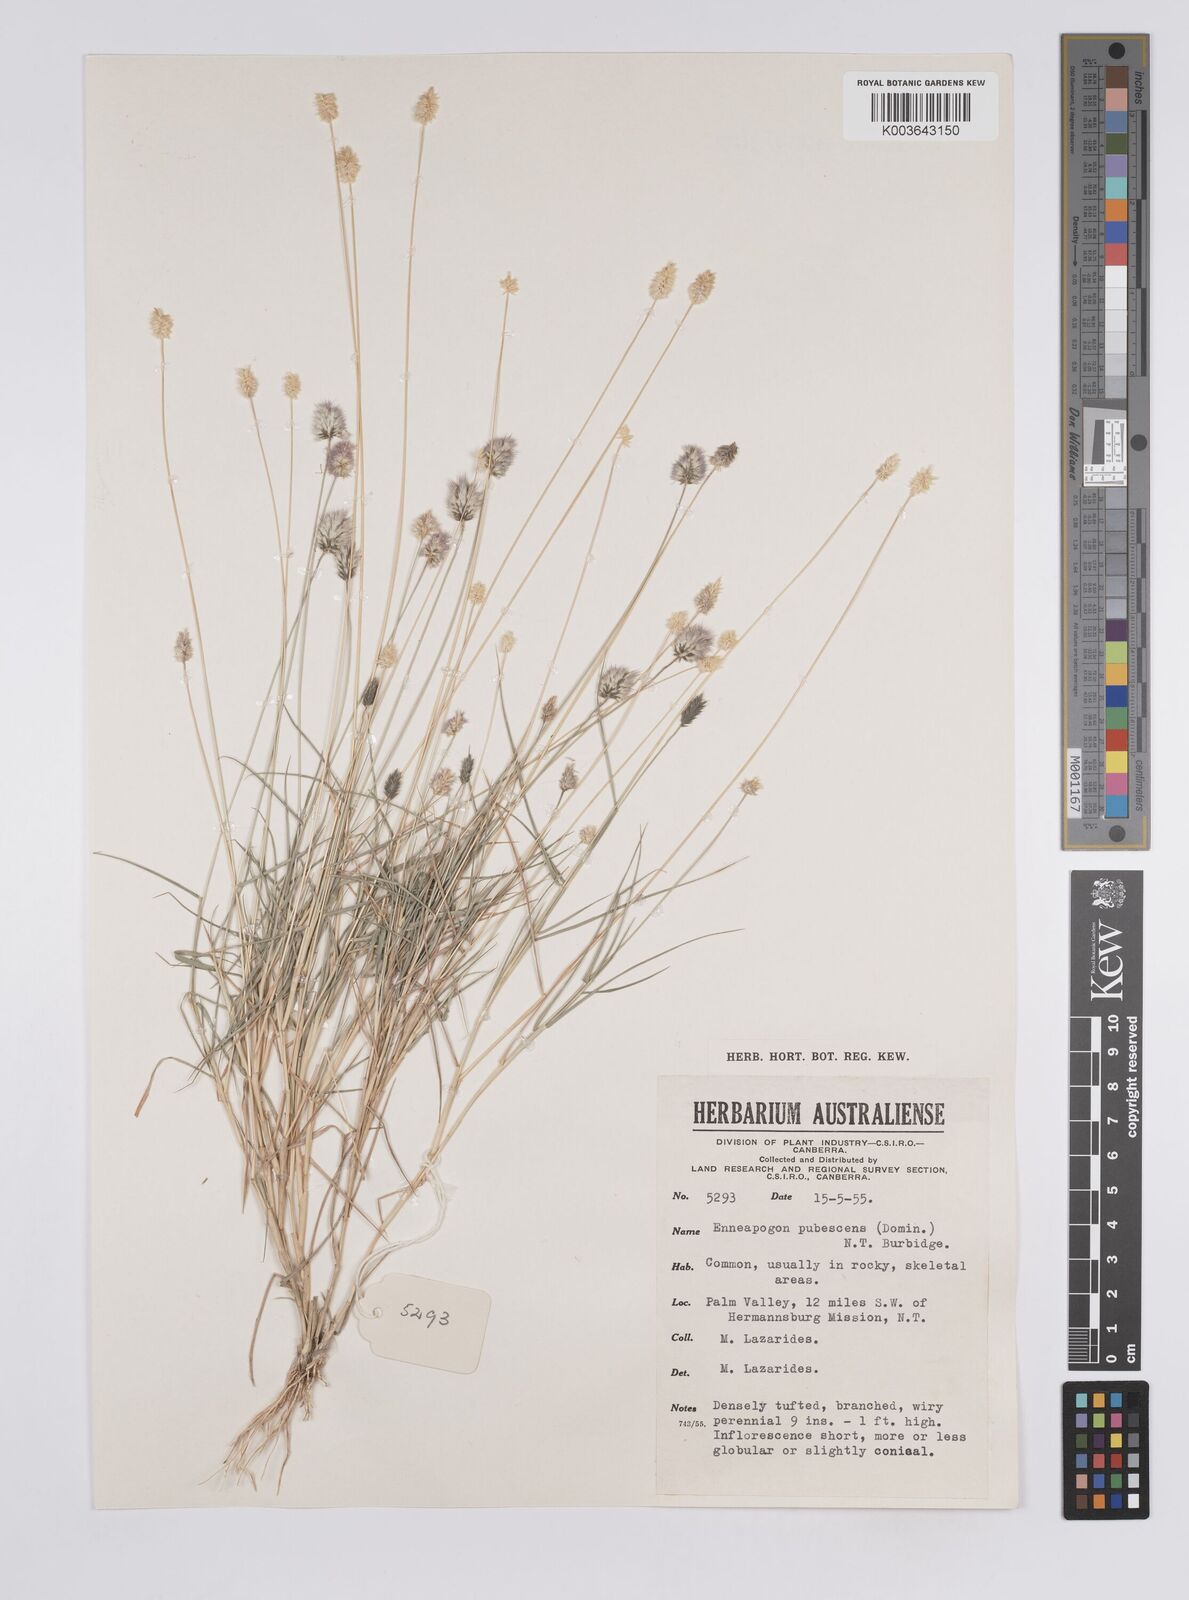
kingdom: Plantae
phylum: Tracheophyta
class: Liliopsida
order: Poales
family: Poaceae
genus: Enneapogon
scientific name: Enneapogon lindleyanus
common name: Conetop nineawn
